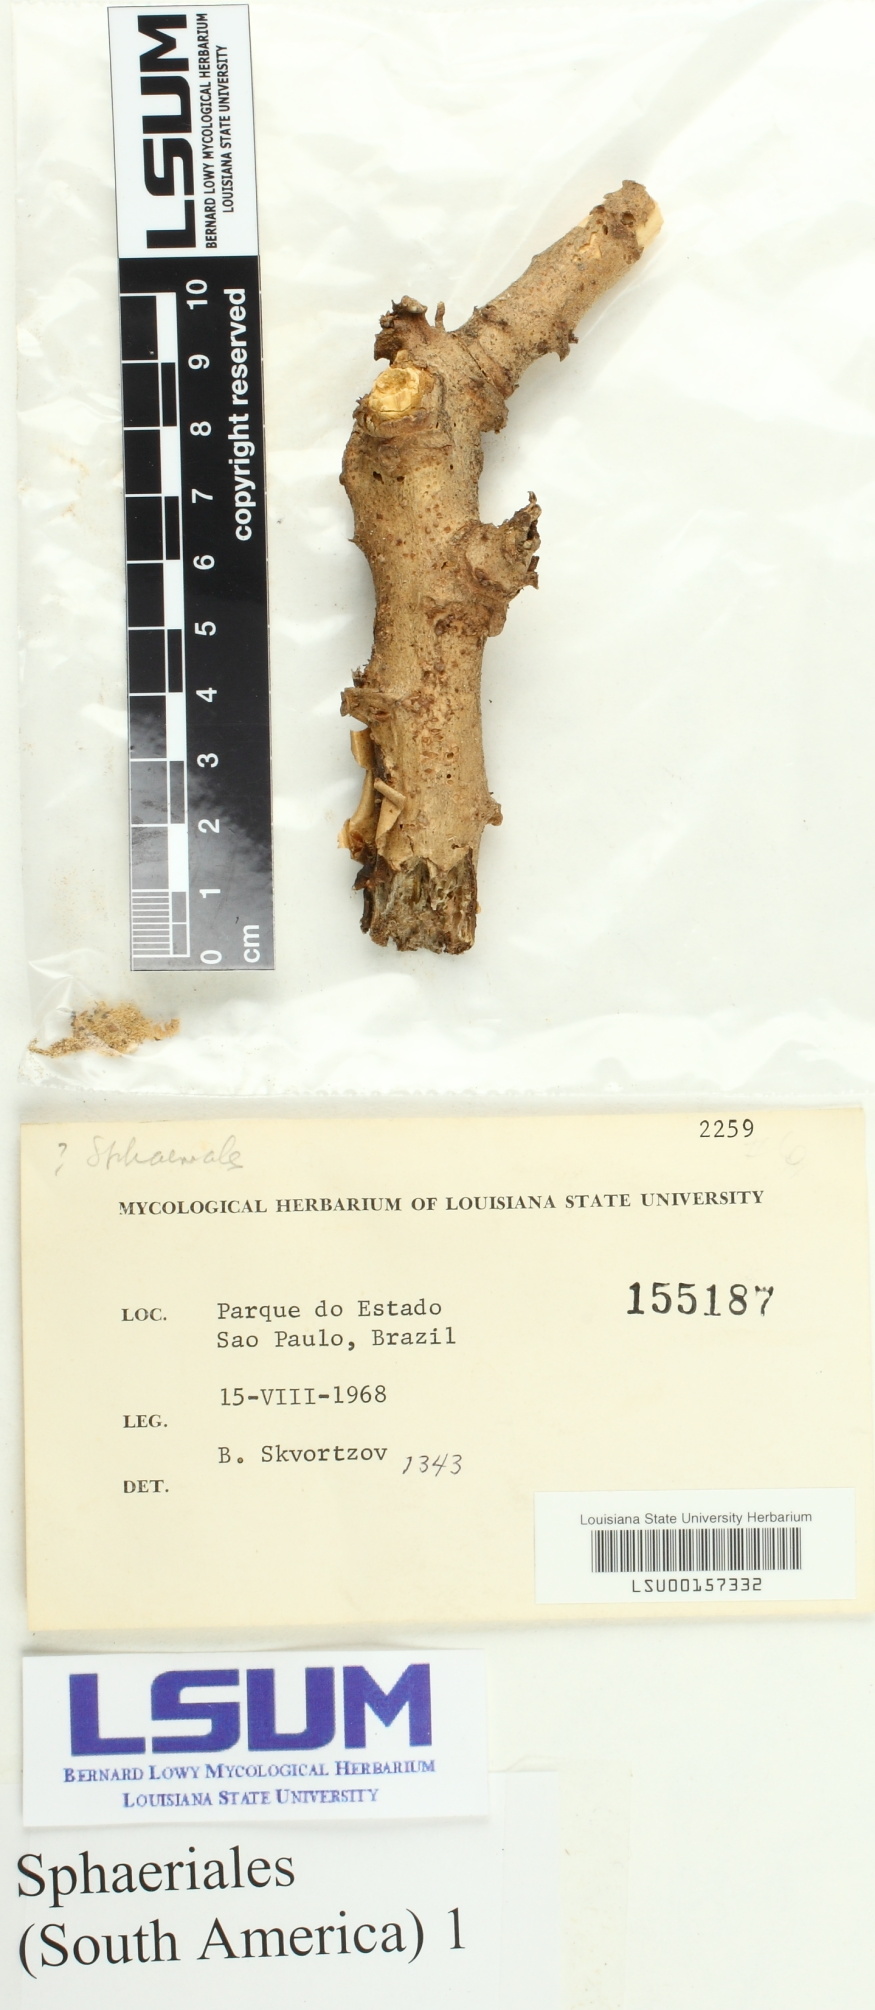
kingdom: Fungi
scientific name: Fungi
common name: Fungi
